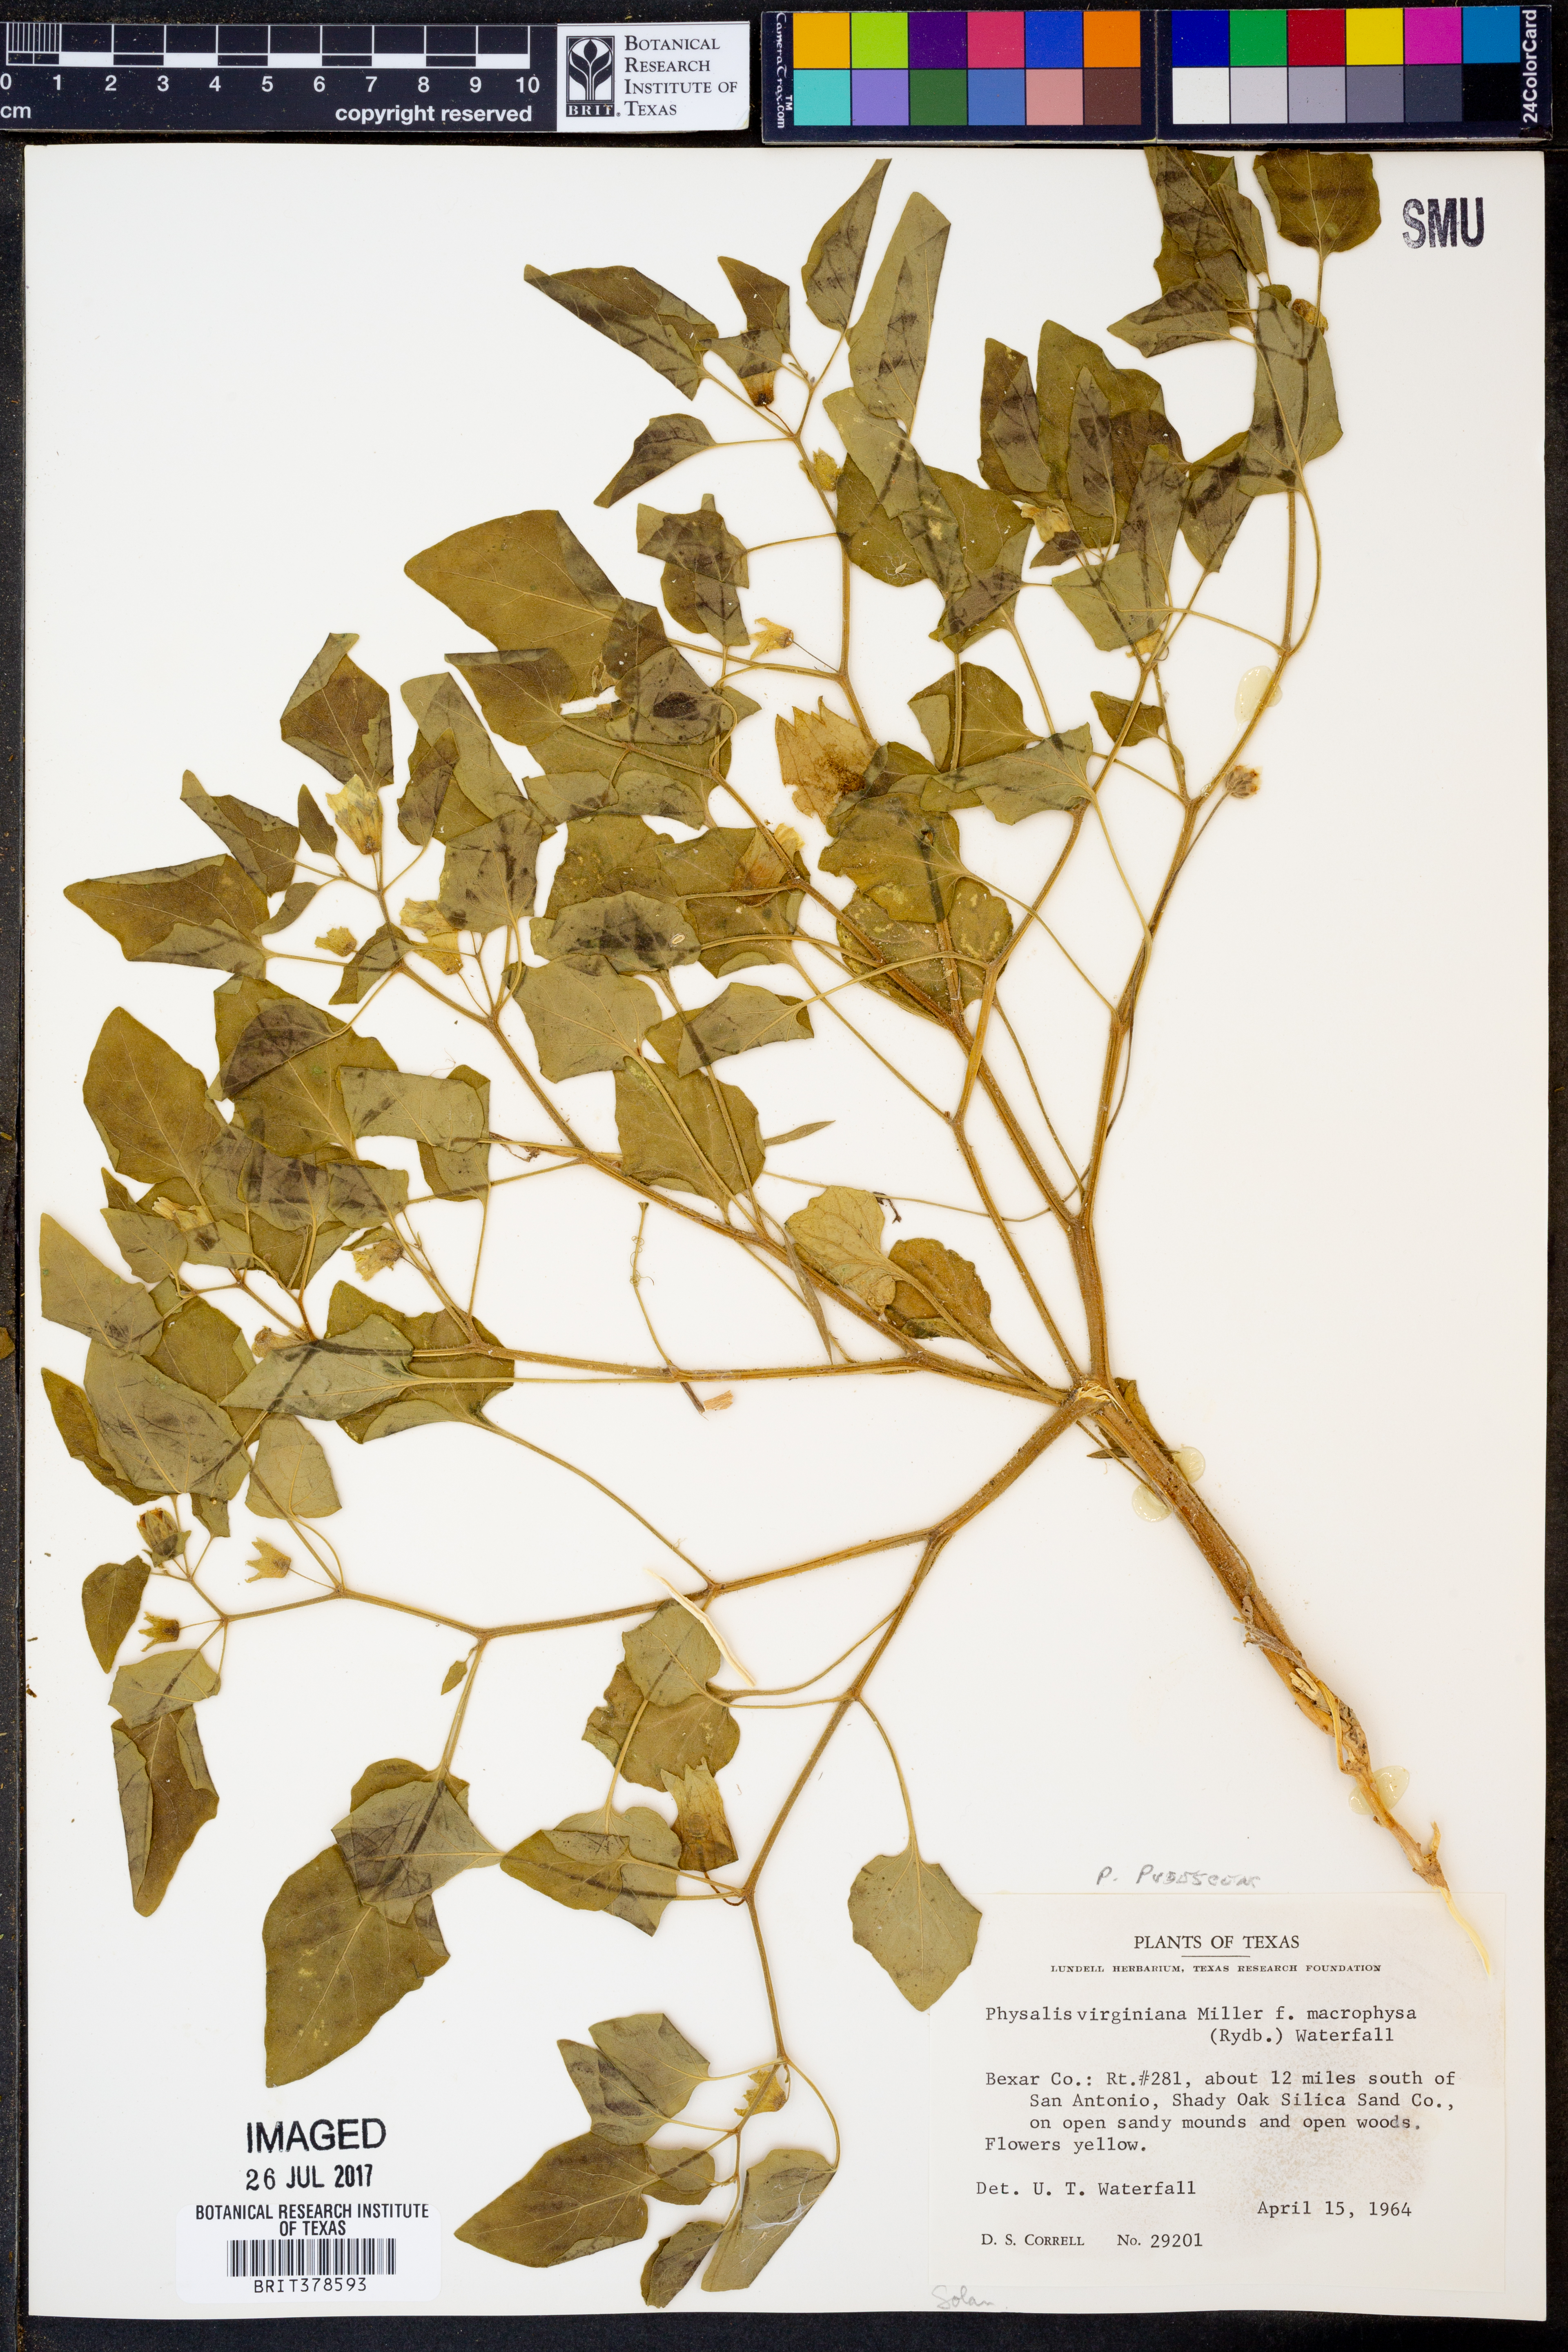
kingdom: Plantae
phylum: Tracheophyta
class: Magnoliopsida
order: Solanales
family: Solanaceae
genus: Physalis
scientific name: Physalis pubescens
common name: Downy ground-cherry
